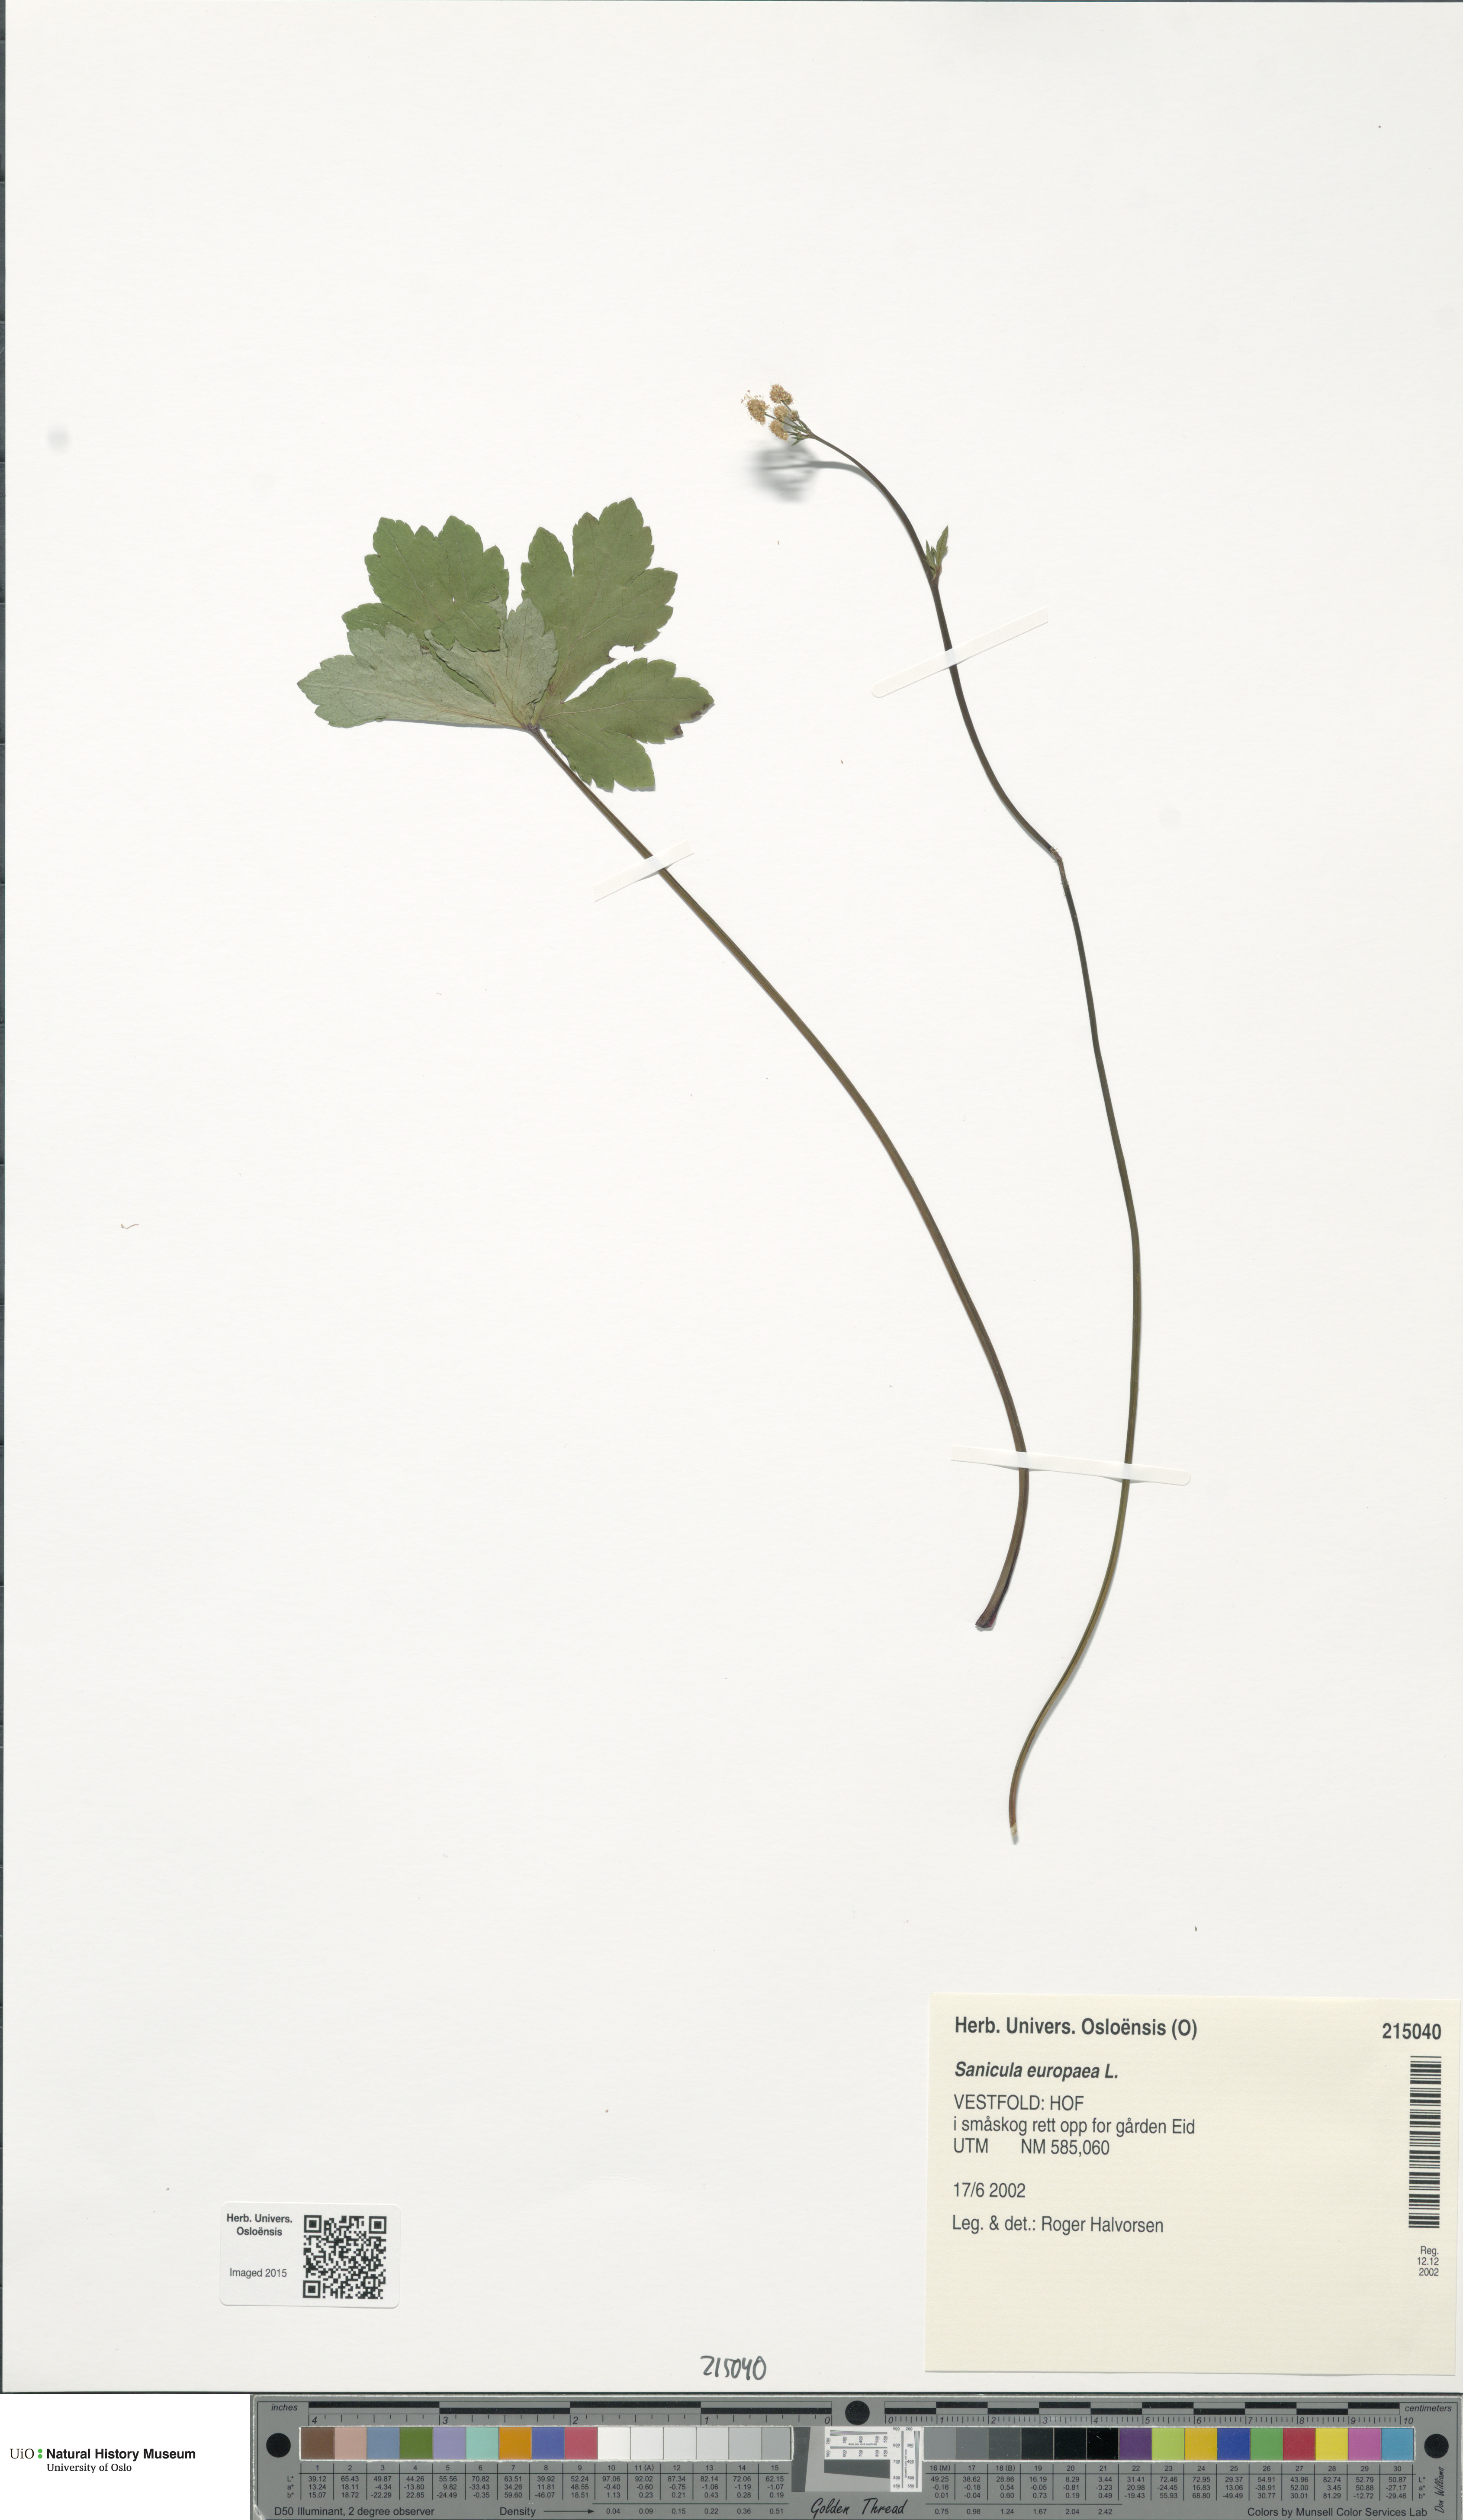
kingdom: Plantae
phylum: Tracheophyta
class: Magnoliopsida
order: Apiales
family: Apiaceae
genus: Sanicula
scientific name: Sanicula europaea
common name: Sanicle
